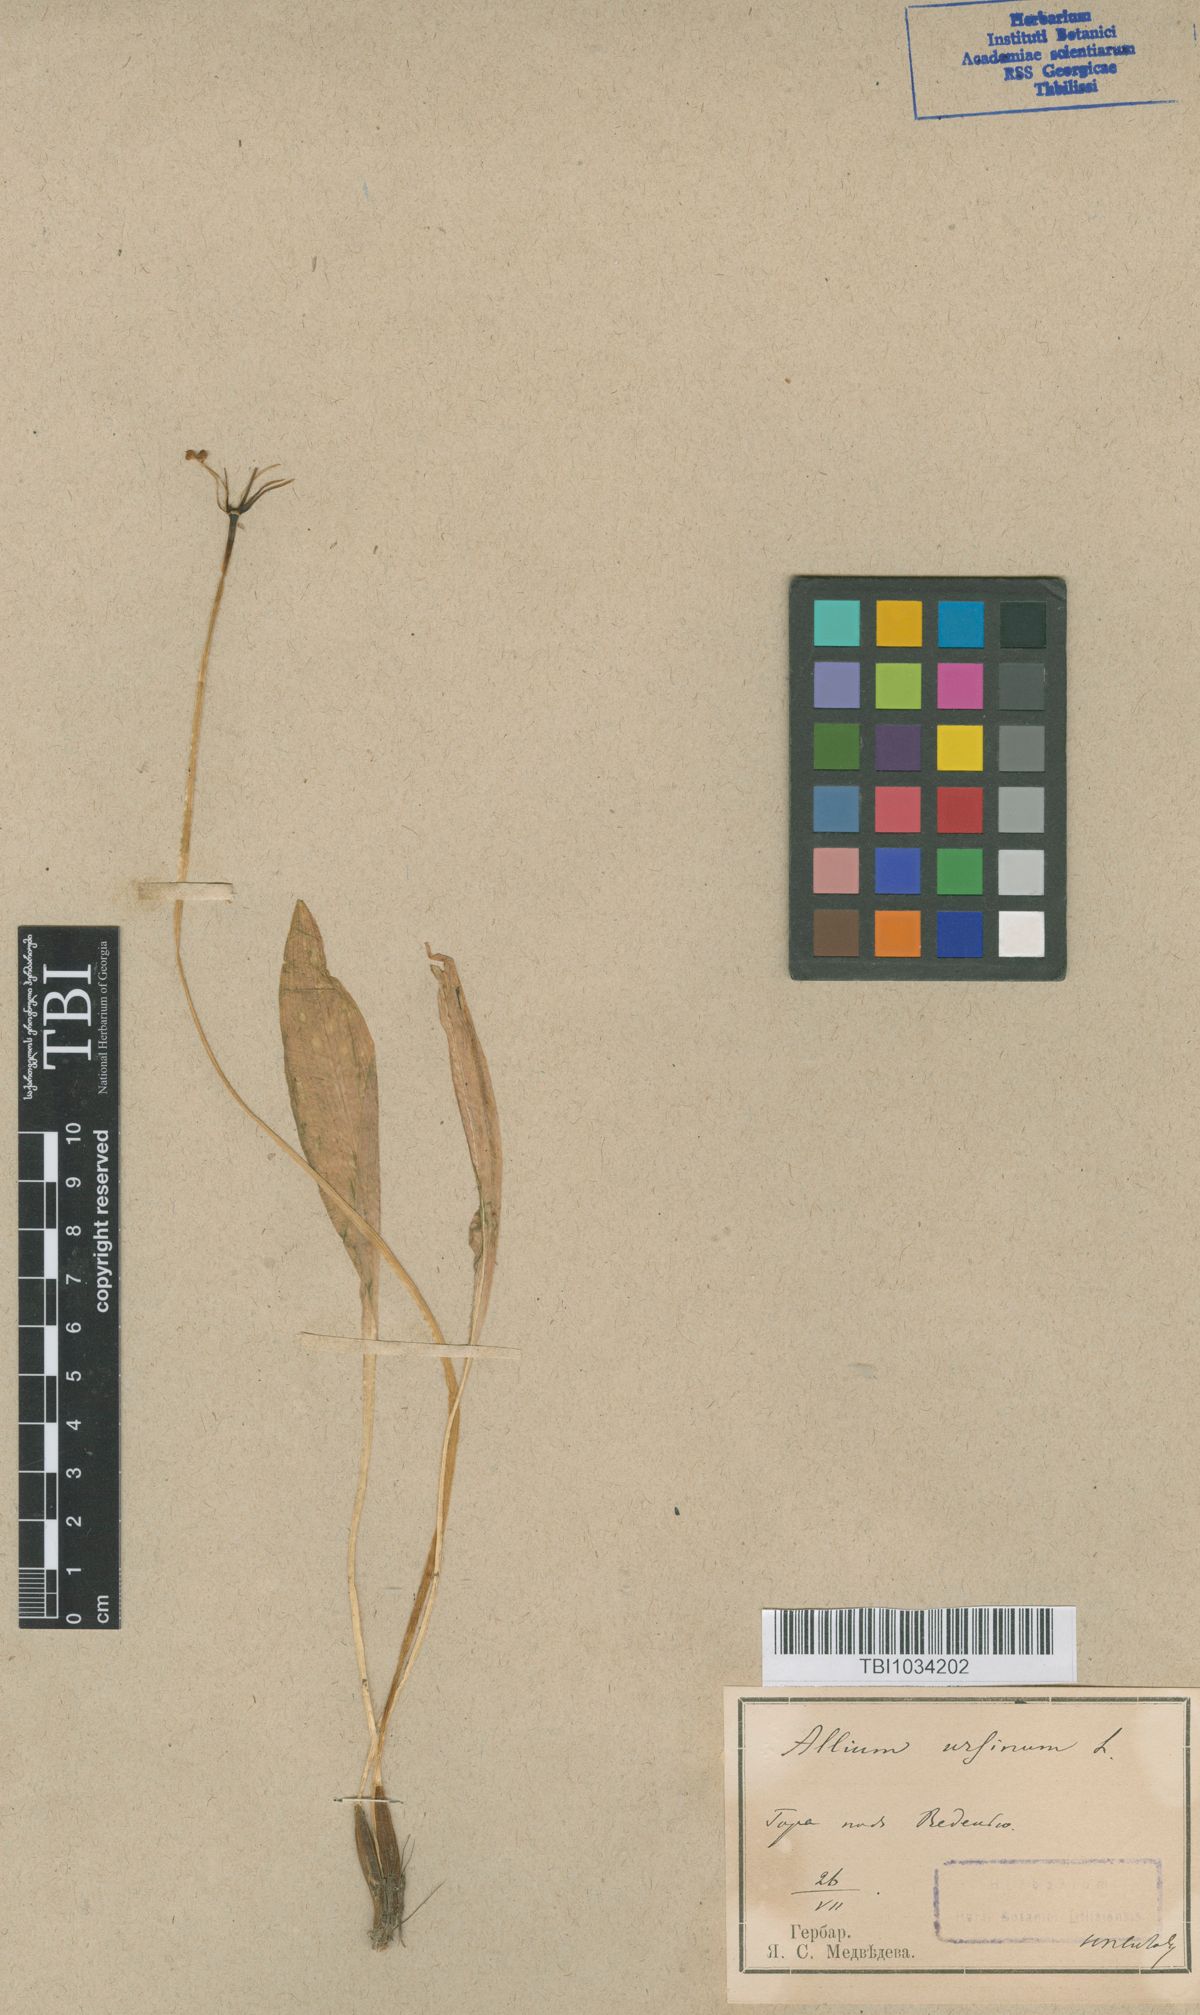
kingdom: Plantae
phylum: Tracheophyta
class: Liliopsida
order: Asparagales
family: Amaryllidaceae
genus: Allium
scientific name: Allium ursinum
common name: Ramsons
